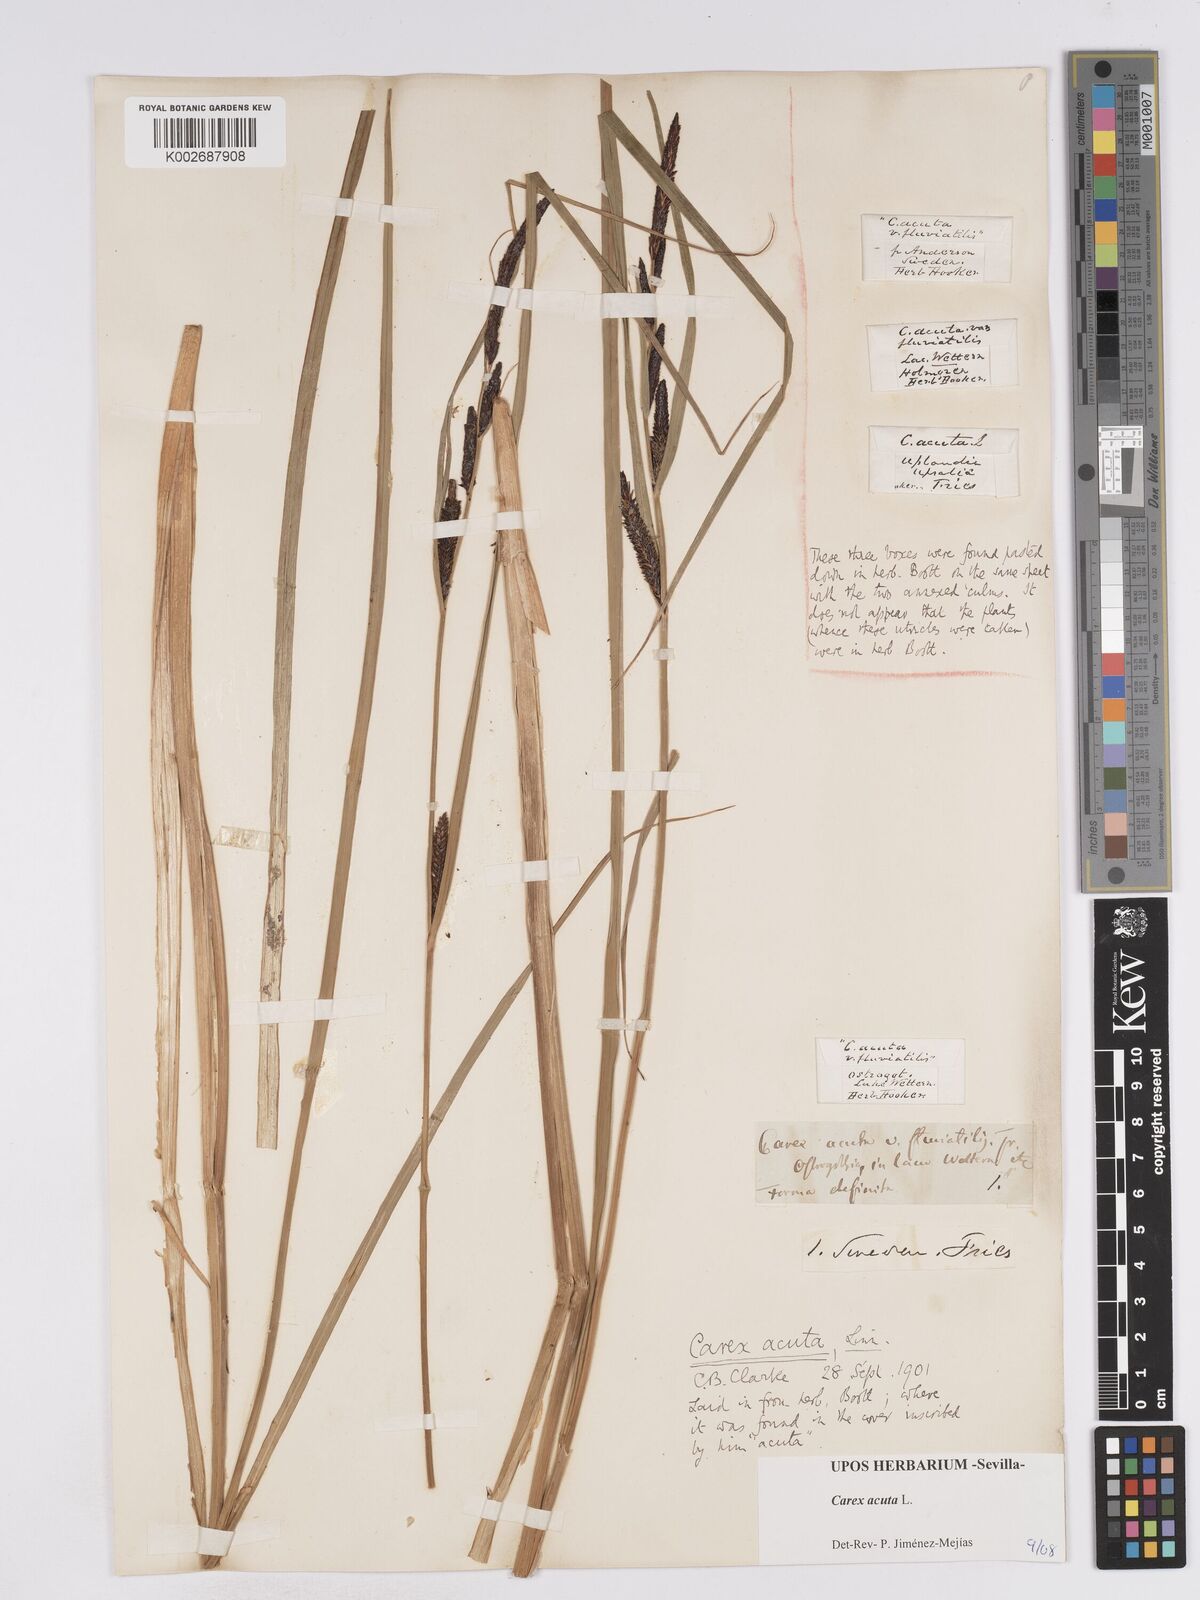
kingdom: Plantae
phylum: Tracheophyta
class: Liliopsida
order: Poales
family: Cyperaceae
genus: Carex
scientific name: Carex acuta
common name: Slender tufted-sedge
